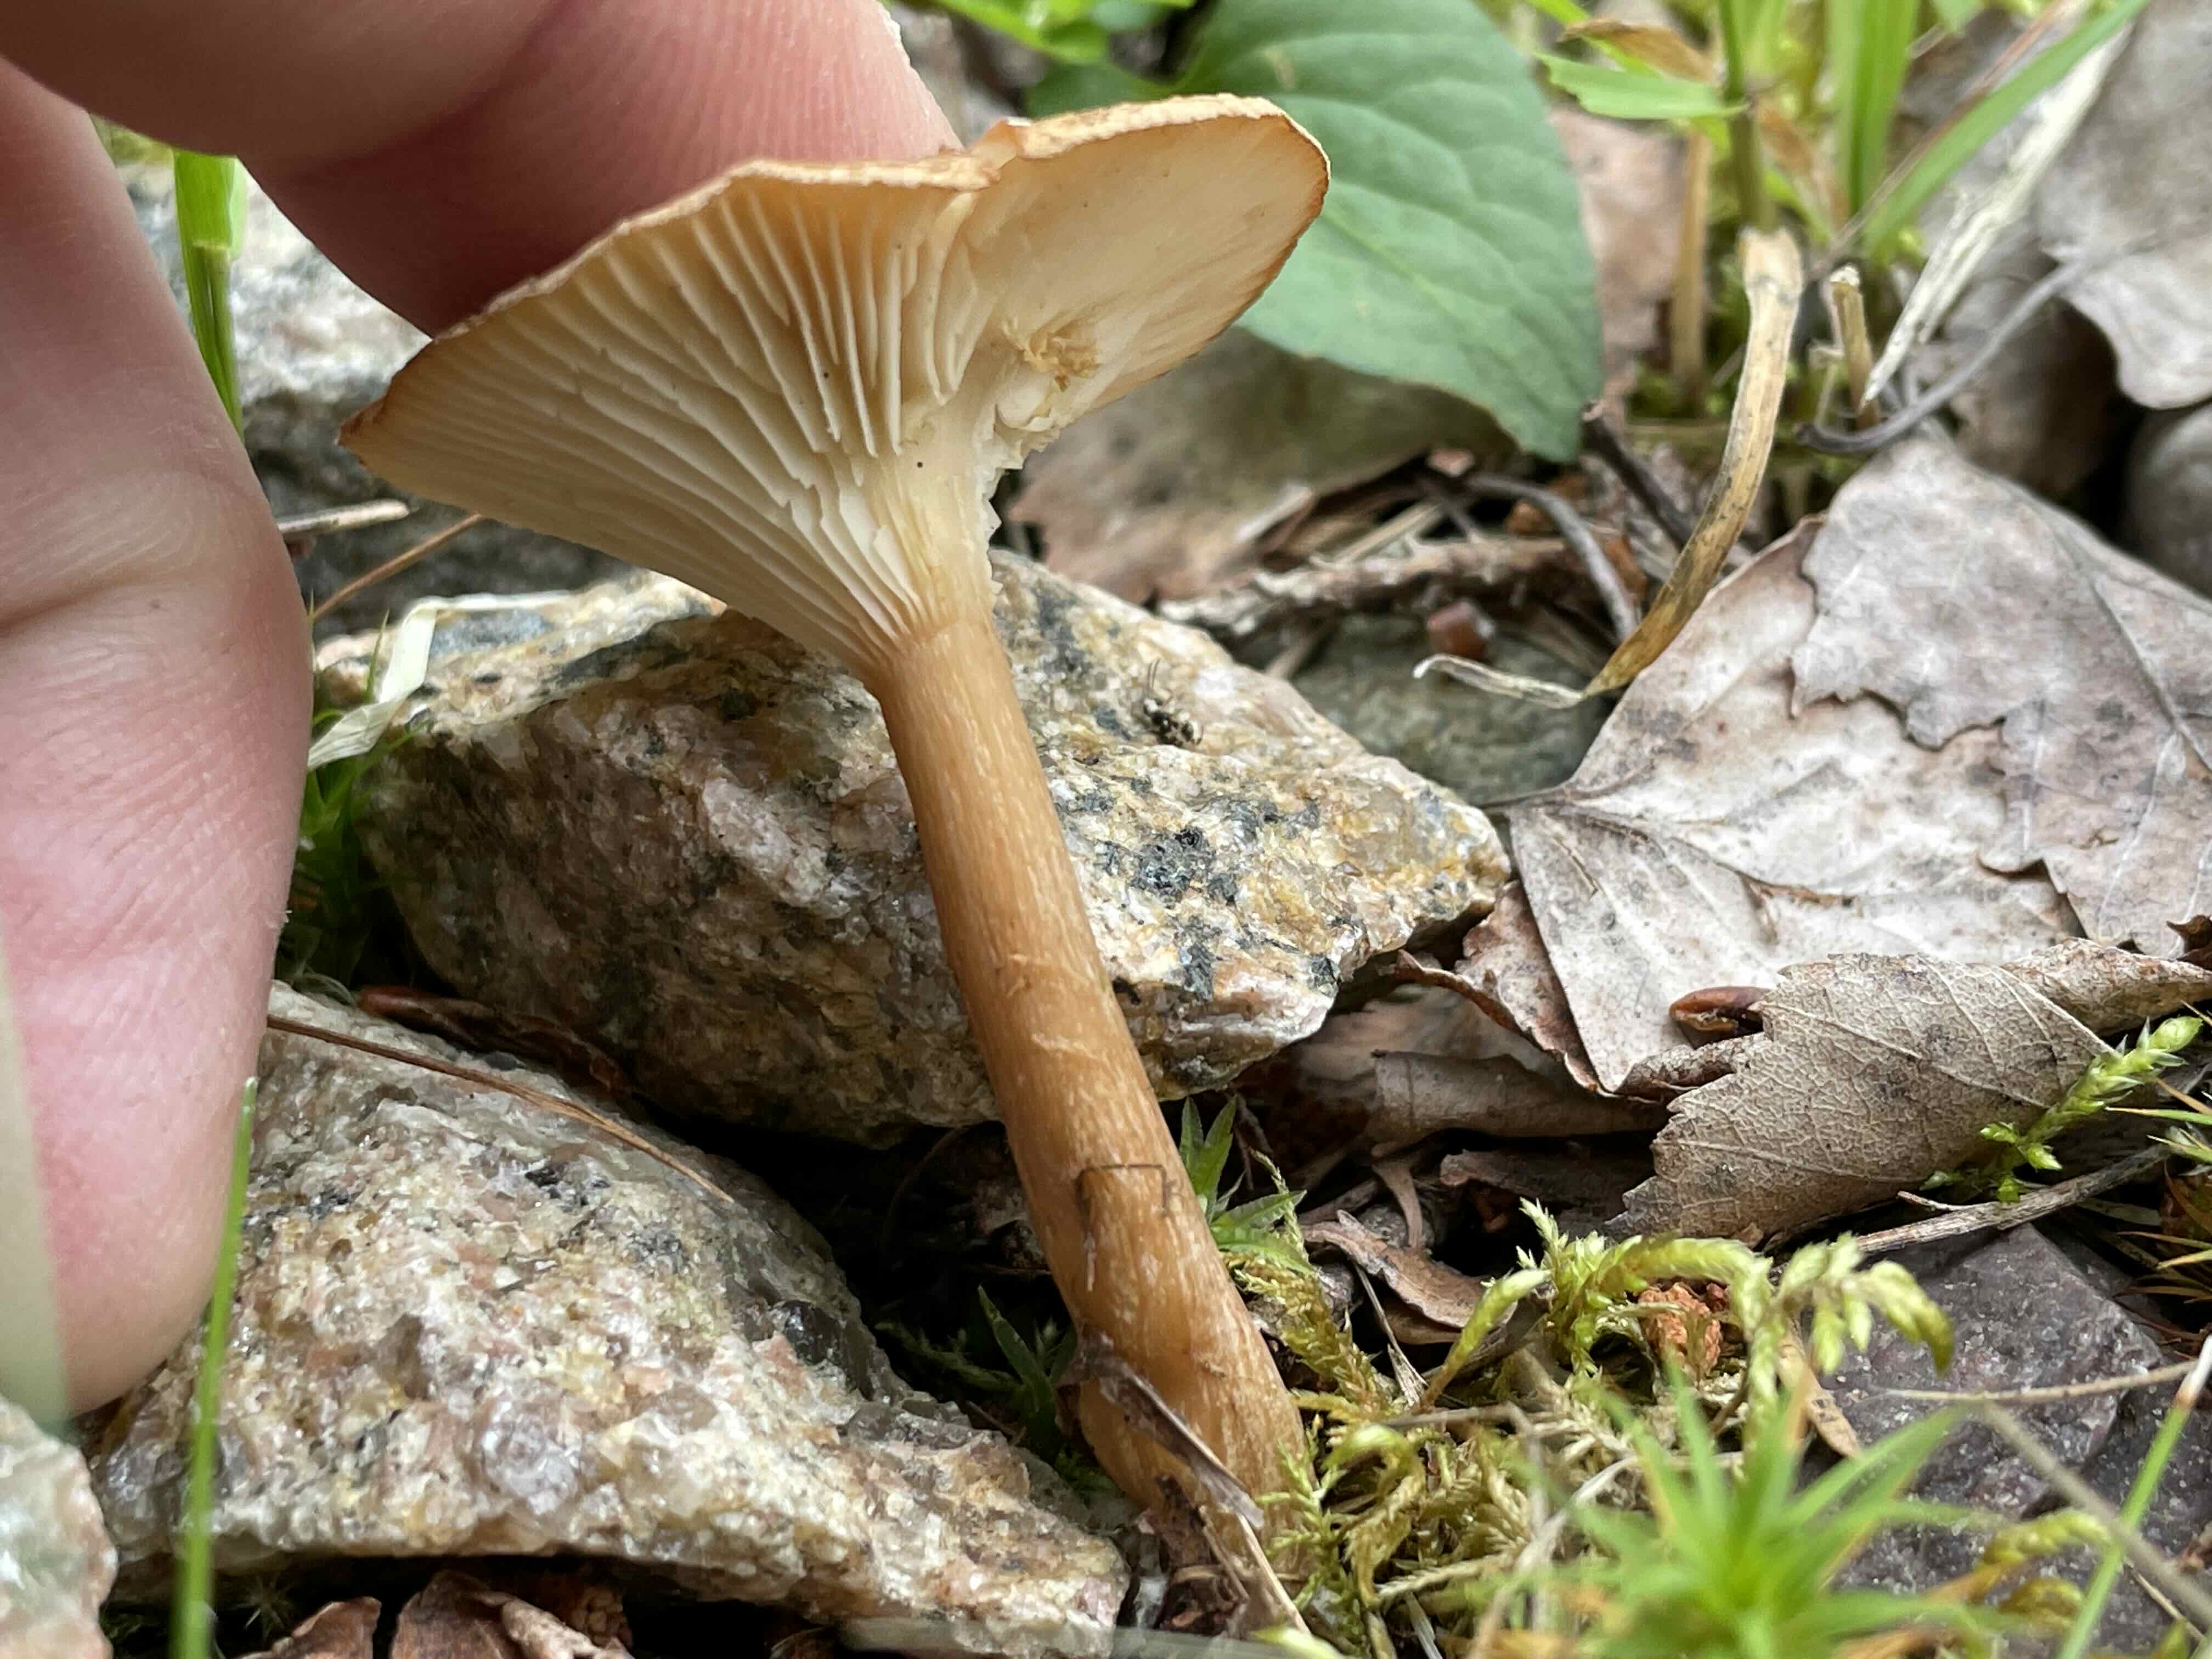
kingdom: Fungi
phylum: Basidiomycota
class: Agaricomycetes
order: Agaricales
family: Tricholomataceae
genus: Infundibulicybe
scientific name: Infundibulicybe squamulosa
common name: småskællet tragthat
